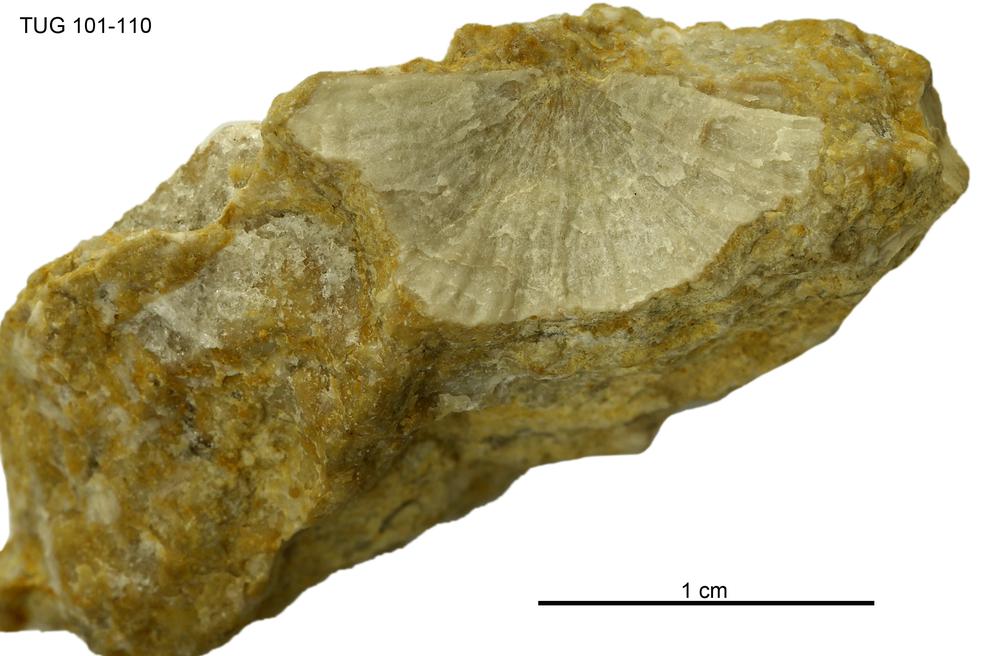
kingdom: Animalia
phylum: Brachiopoda
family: Strophomenidae
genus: Holtedahlina
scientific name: Holtedahlina
